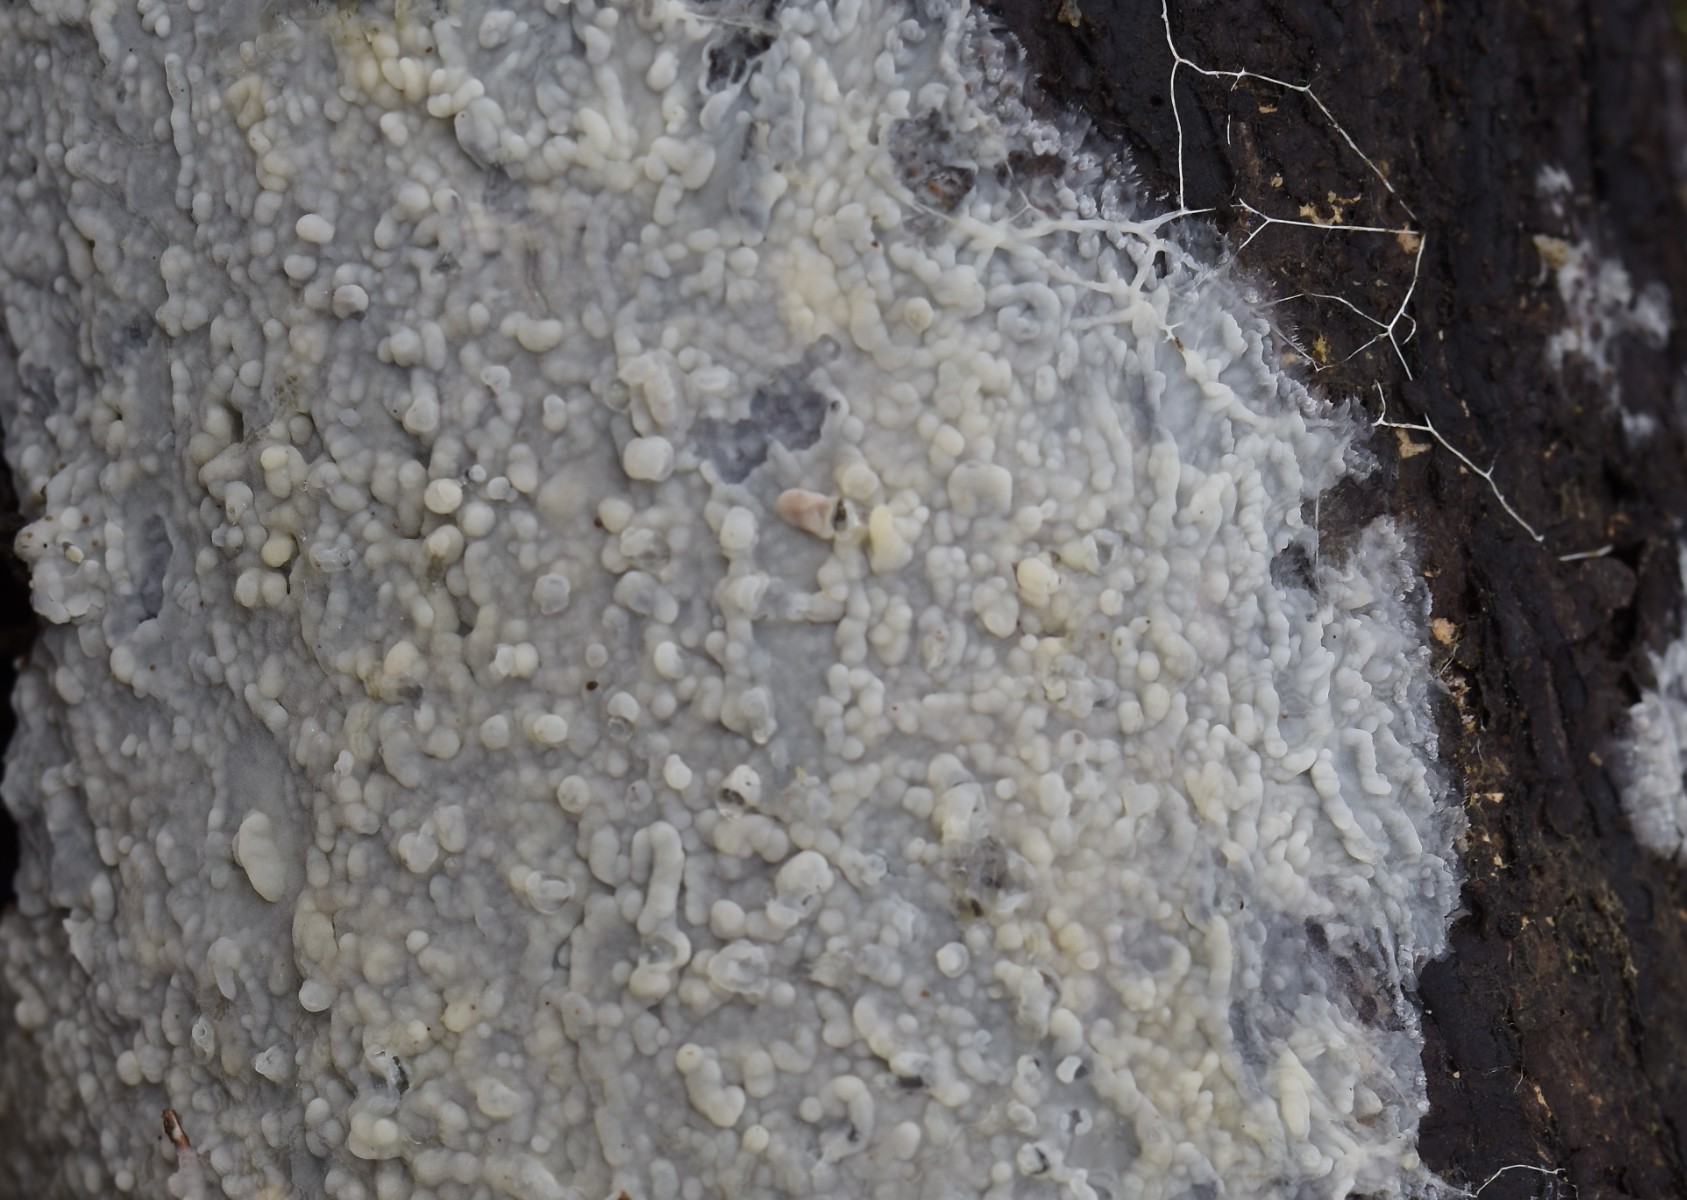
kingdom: Fungi
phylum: Basidiomycota
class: Agaricomycetes
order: Agaricales
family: Radulomycetaceae
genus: Radulomyces
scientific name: Radulomyces confluens
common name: glat naftalinskind
